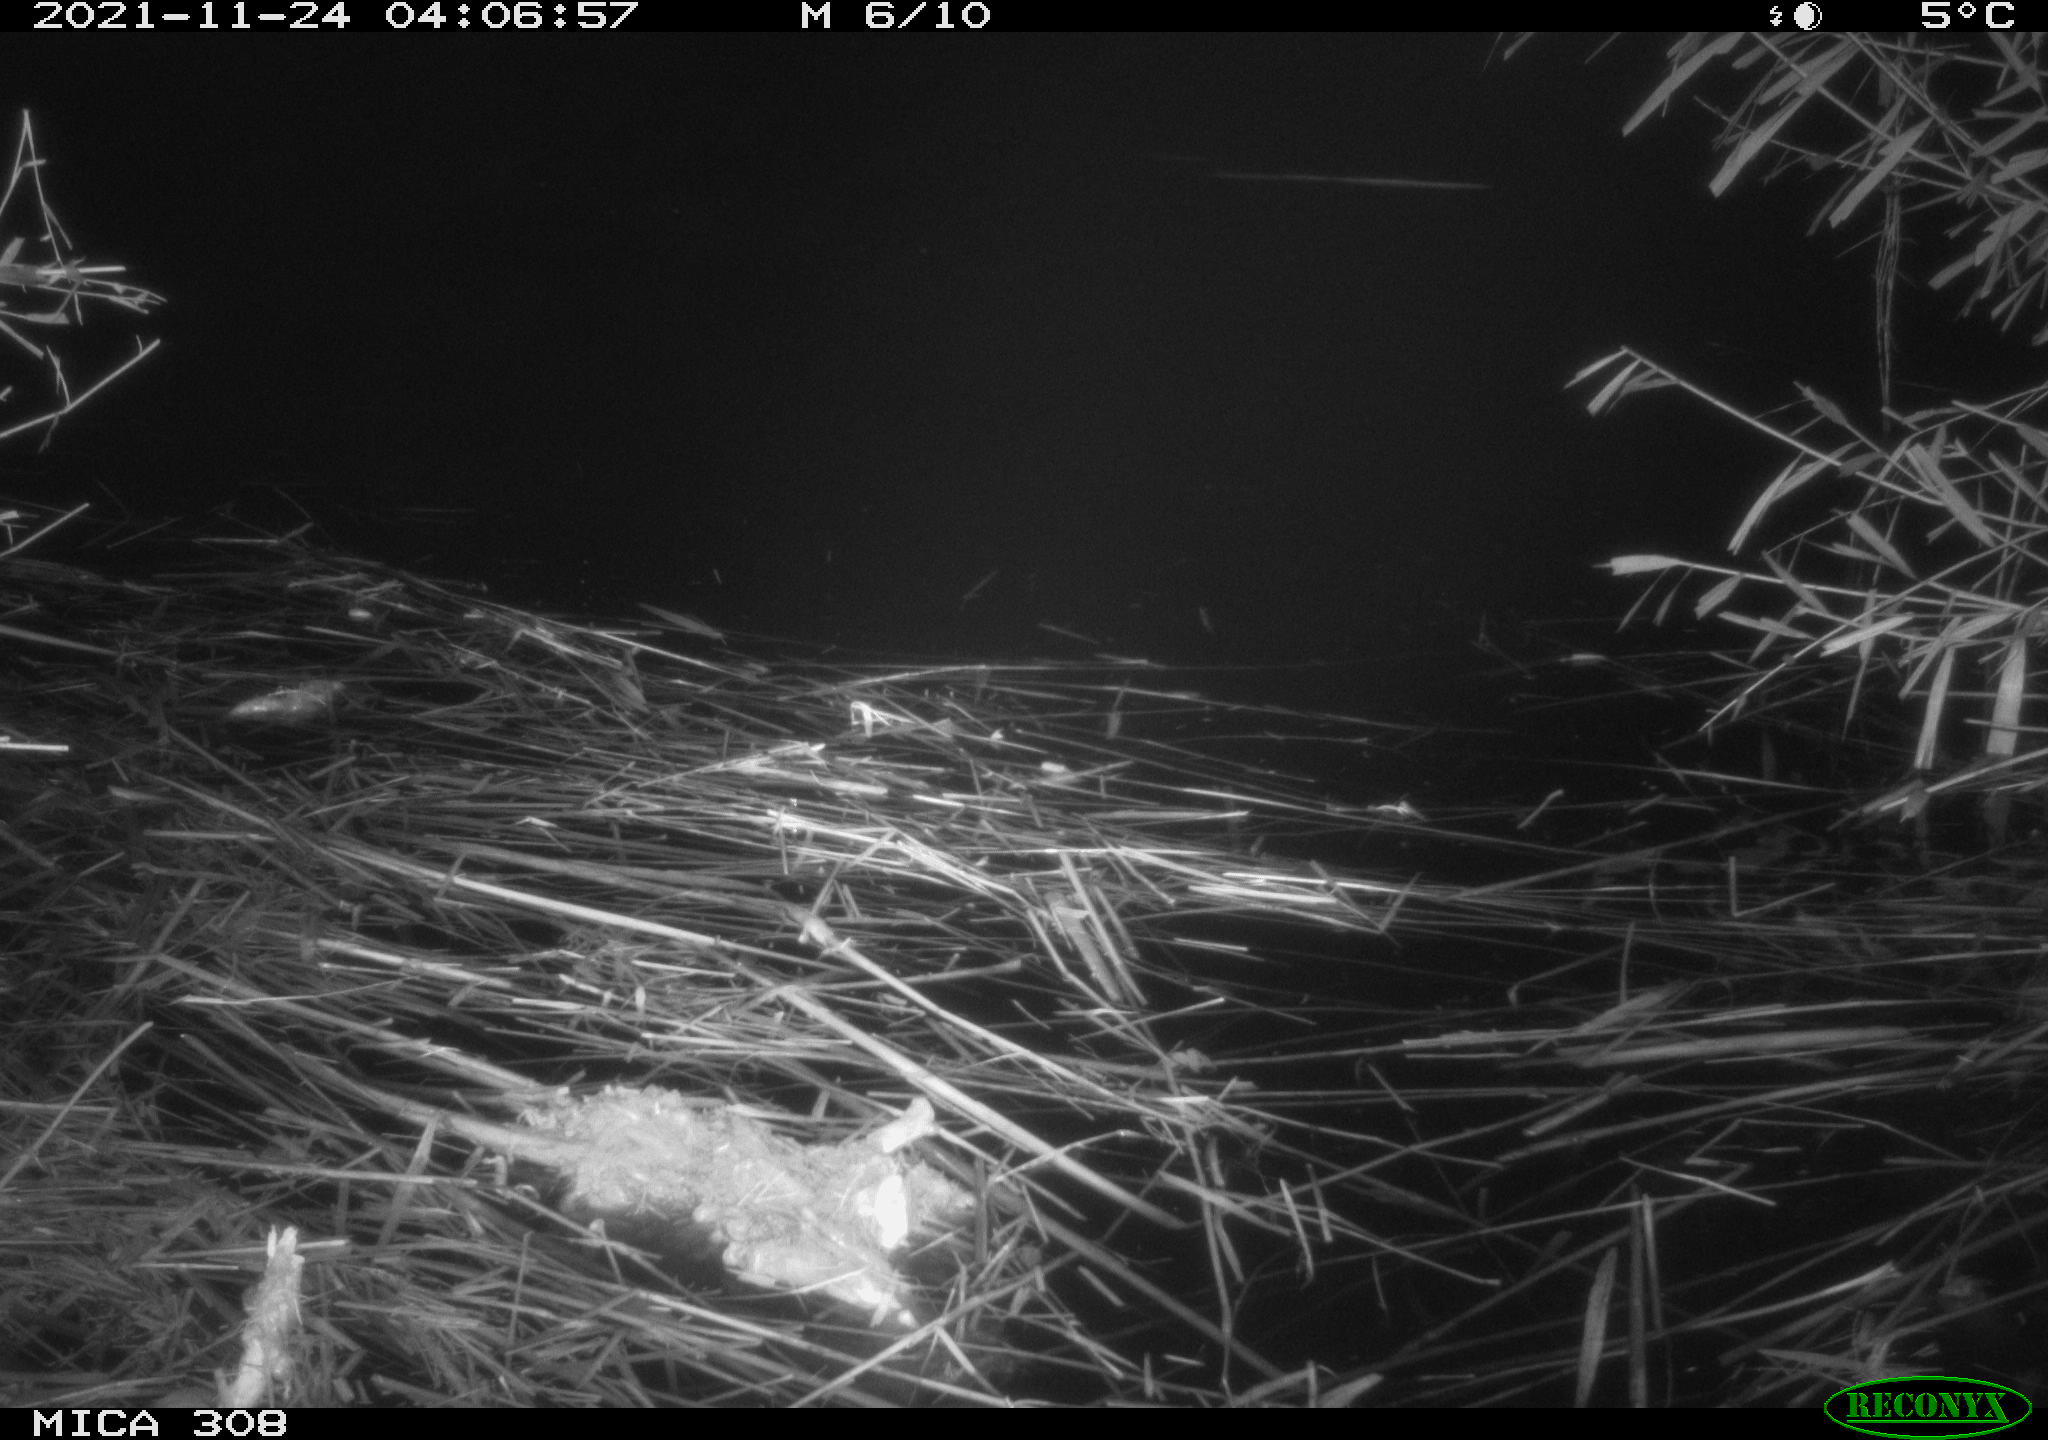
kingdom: Animalia
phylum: Chordata
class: Aves
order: Anseriformes
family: Anatidae
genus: Anas
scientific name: Anas platyrhynchos
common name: Mallard
